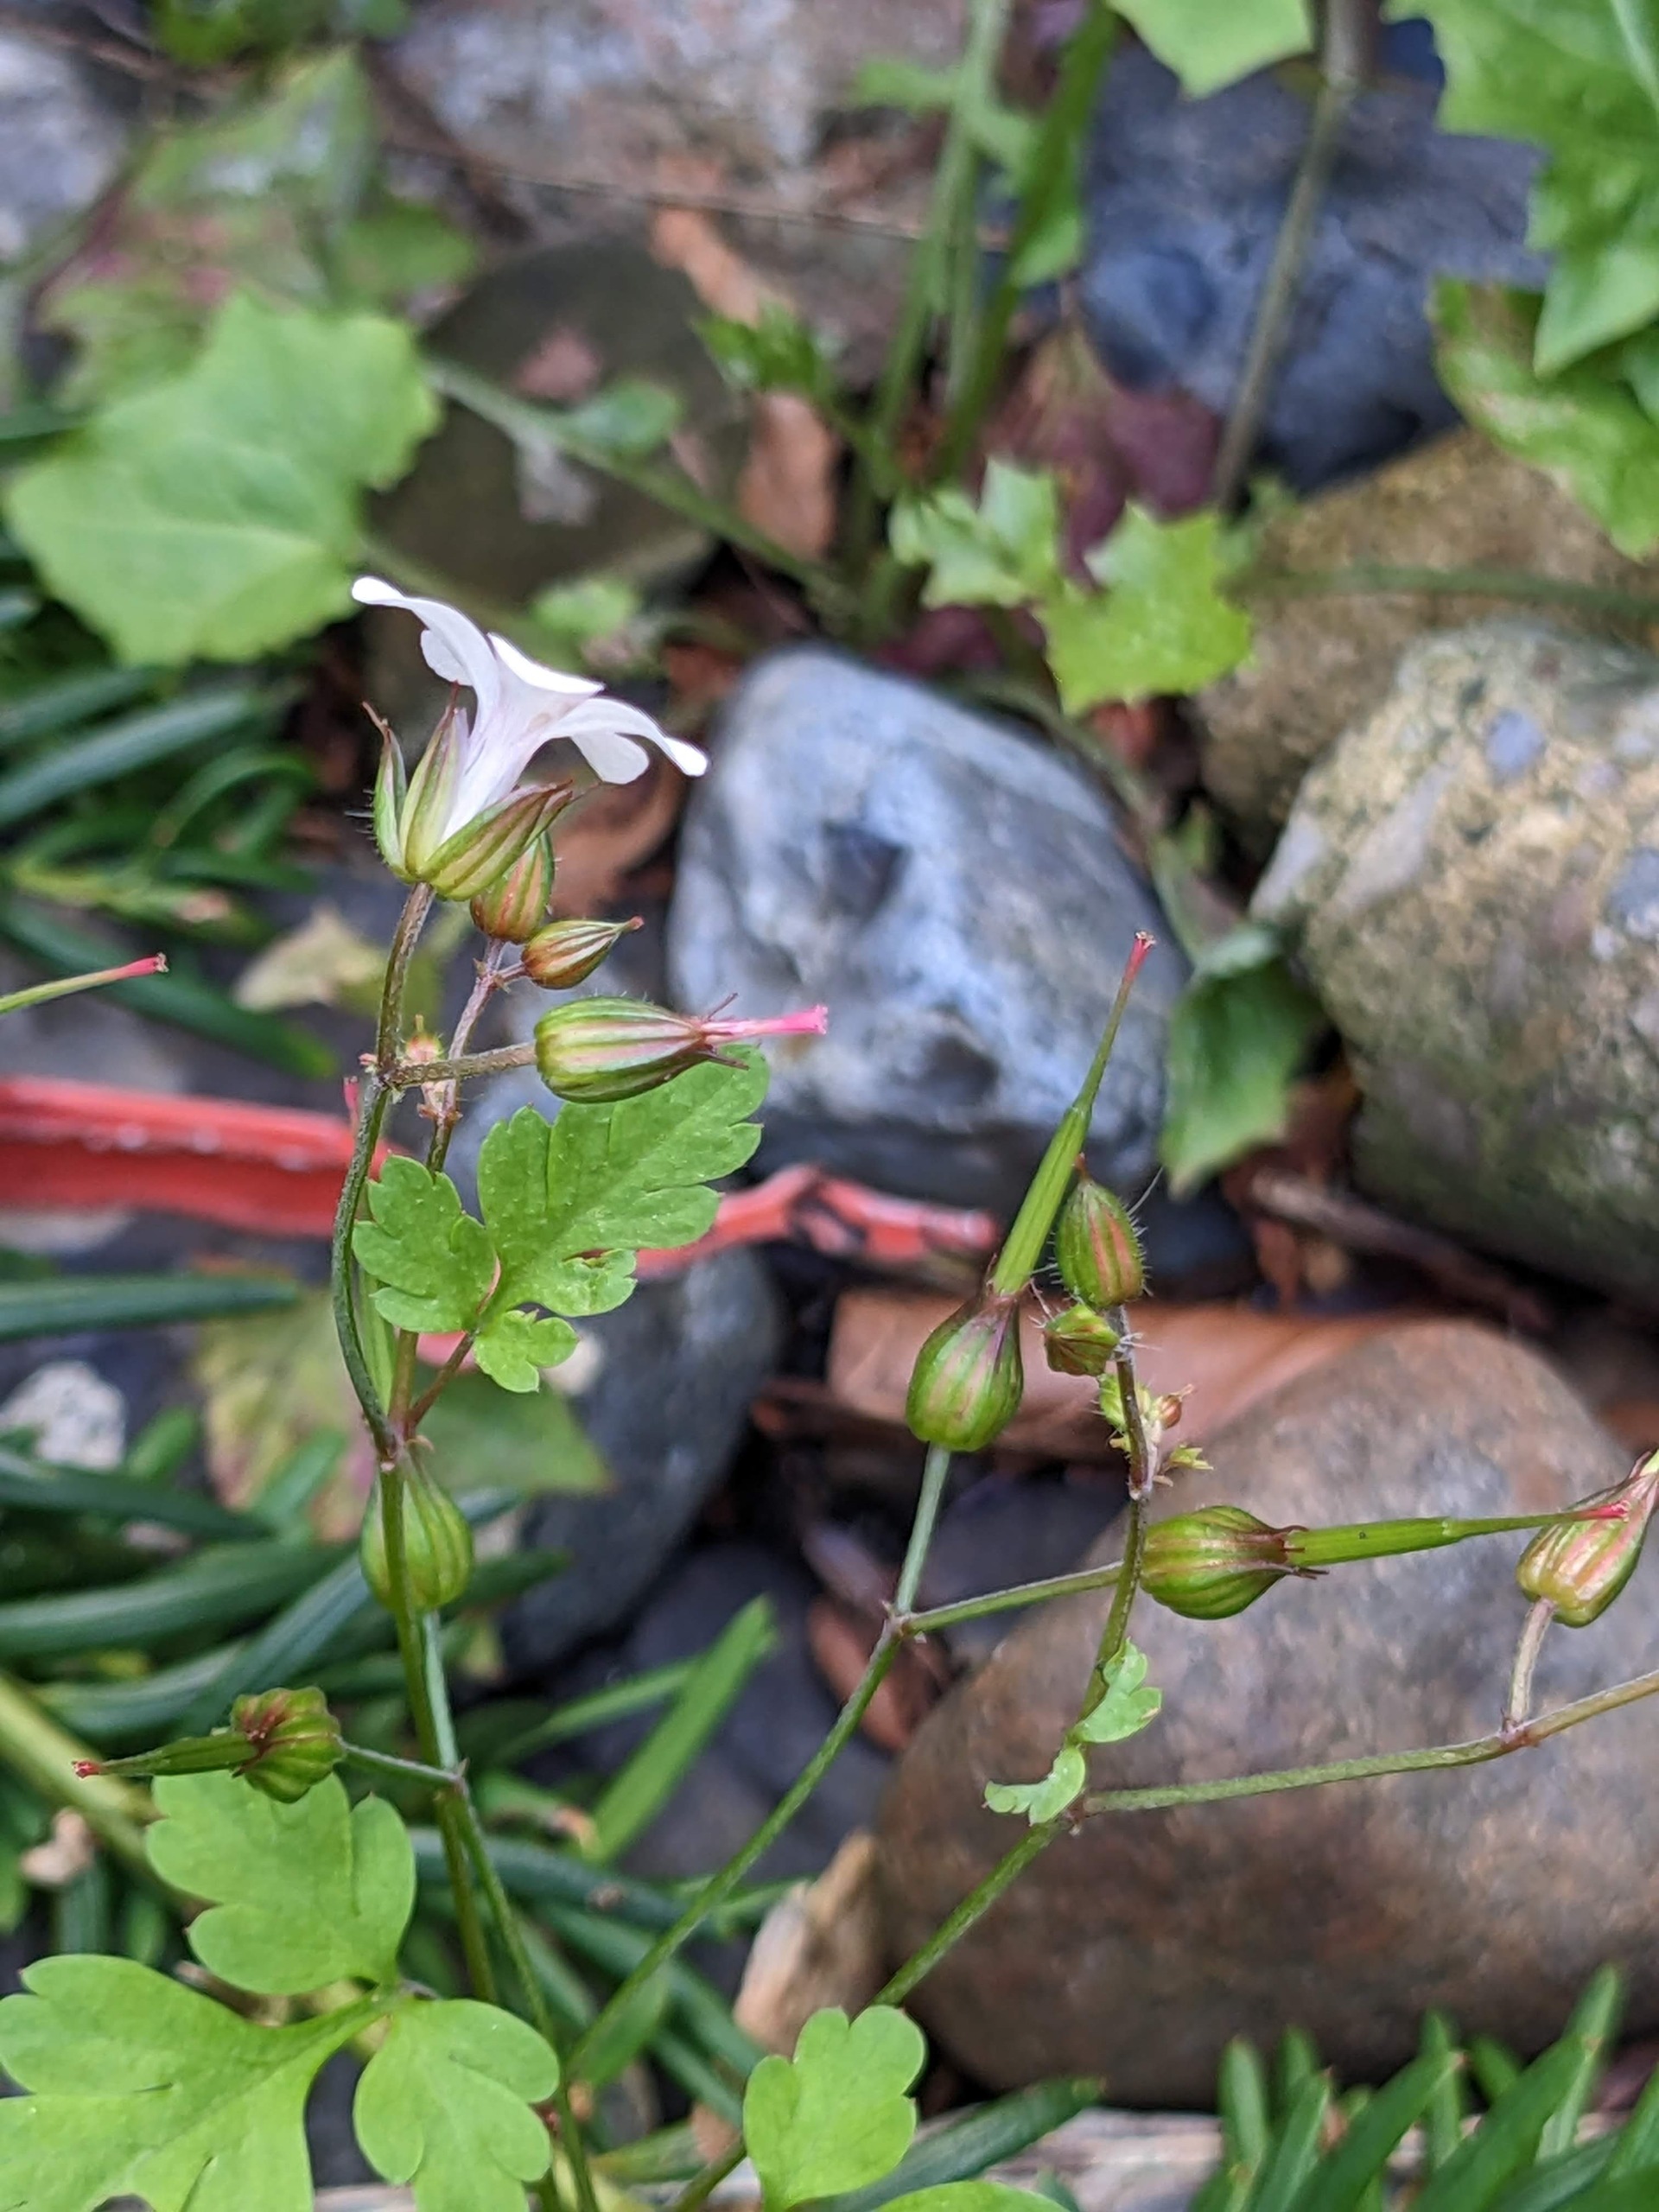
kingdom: Plantae
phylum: Tracheophyta
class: Magnoliopsida
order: Geraniales
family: Geraniaceae
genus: Geranium
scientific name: Geranium robertianum
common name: Stinkende storkenæb
